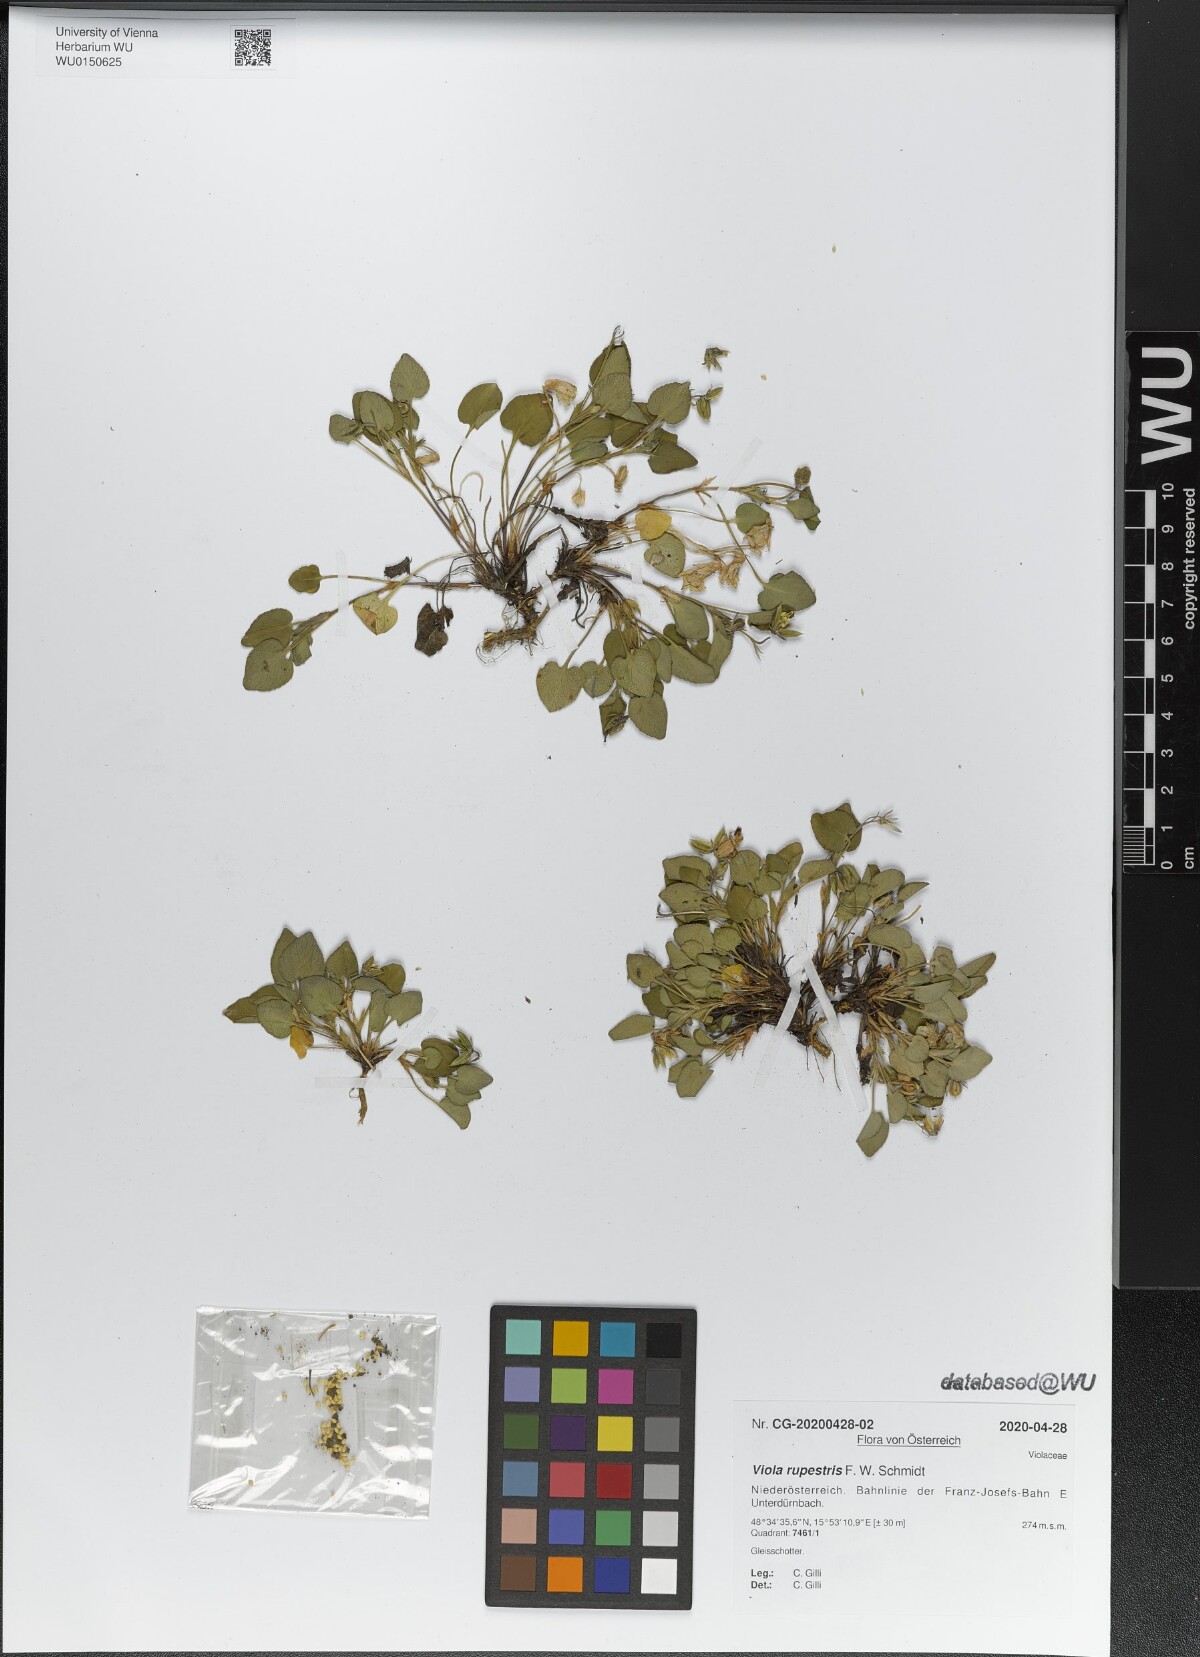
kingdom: Plantae
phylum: Tracheophyta
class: Magnoliopsida
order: Malpighiales
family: Violaceae
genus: Viola
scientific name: Viola rupestris
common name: Teesdale violet
